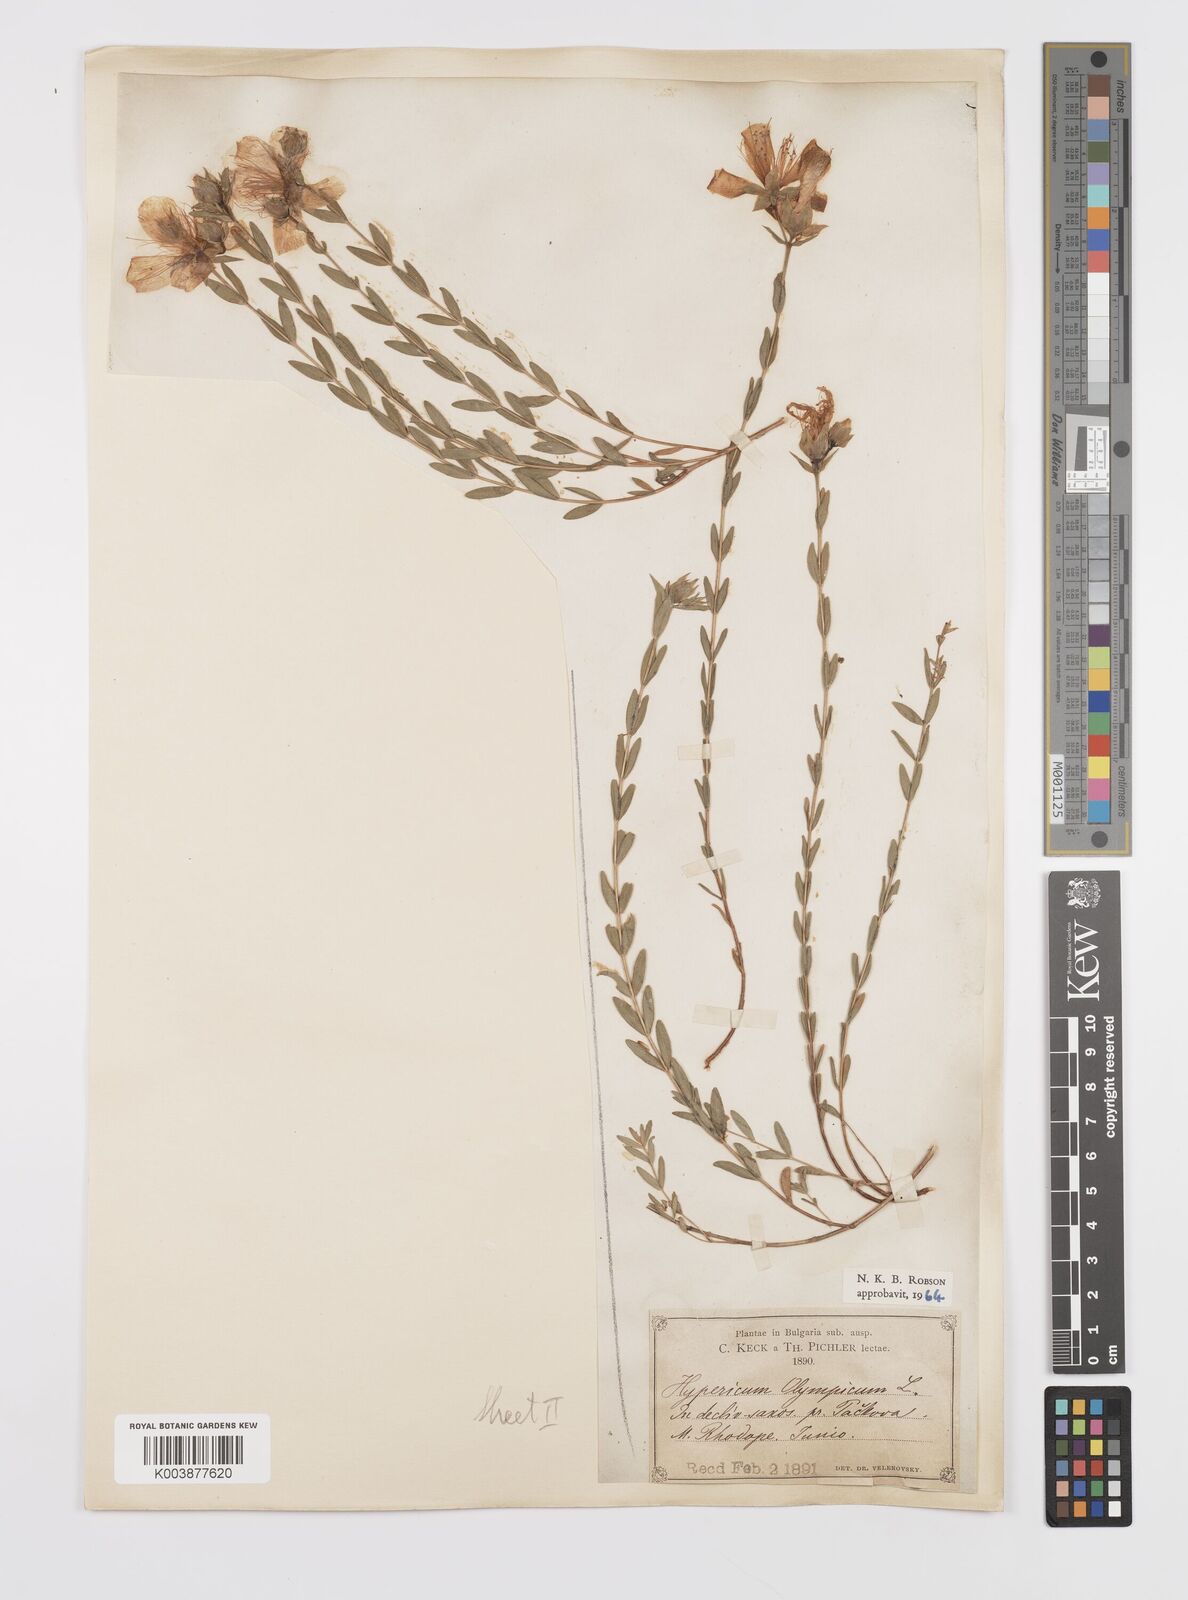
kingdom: Plantae
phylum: Tracheophyta
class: Magnoliopsida
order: Malpighiales
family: Hypericaceae
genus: Hypericum
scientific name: Hypericum olympicum
